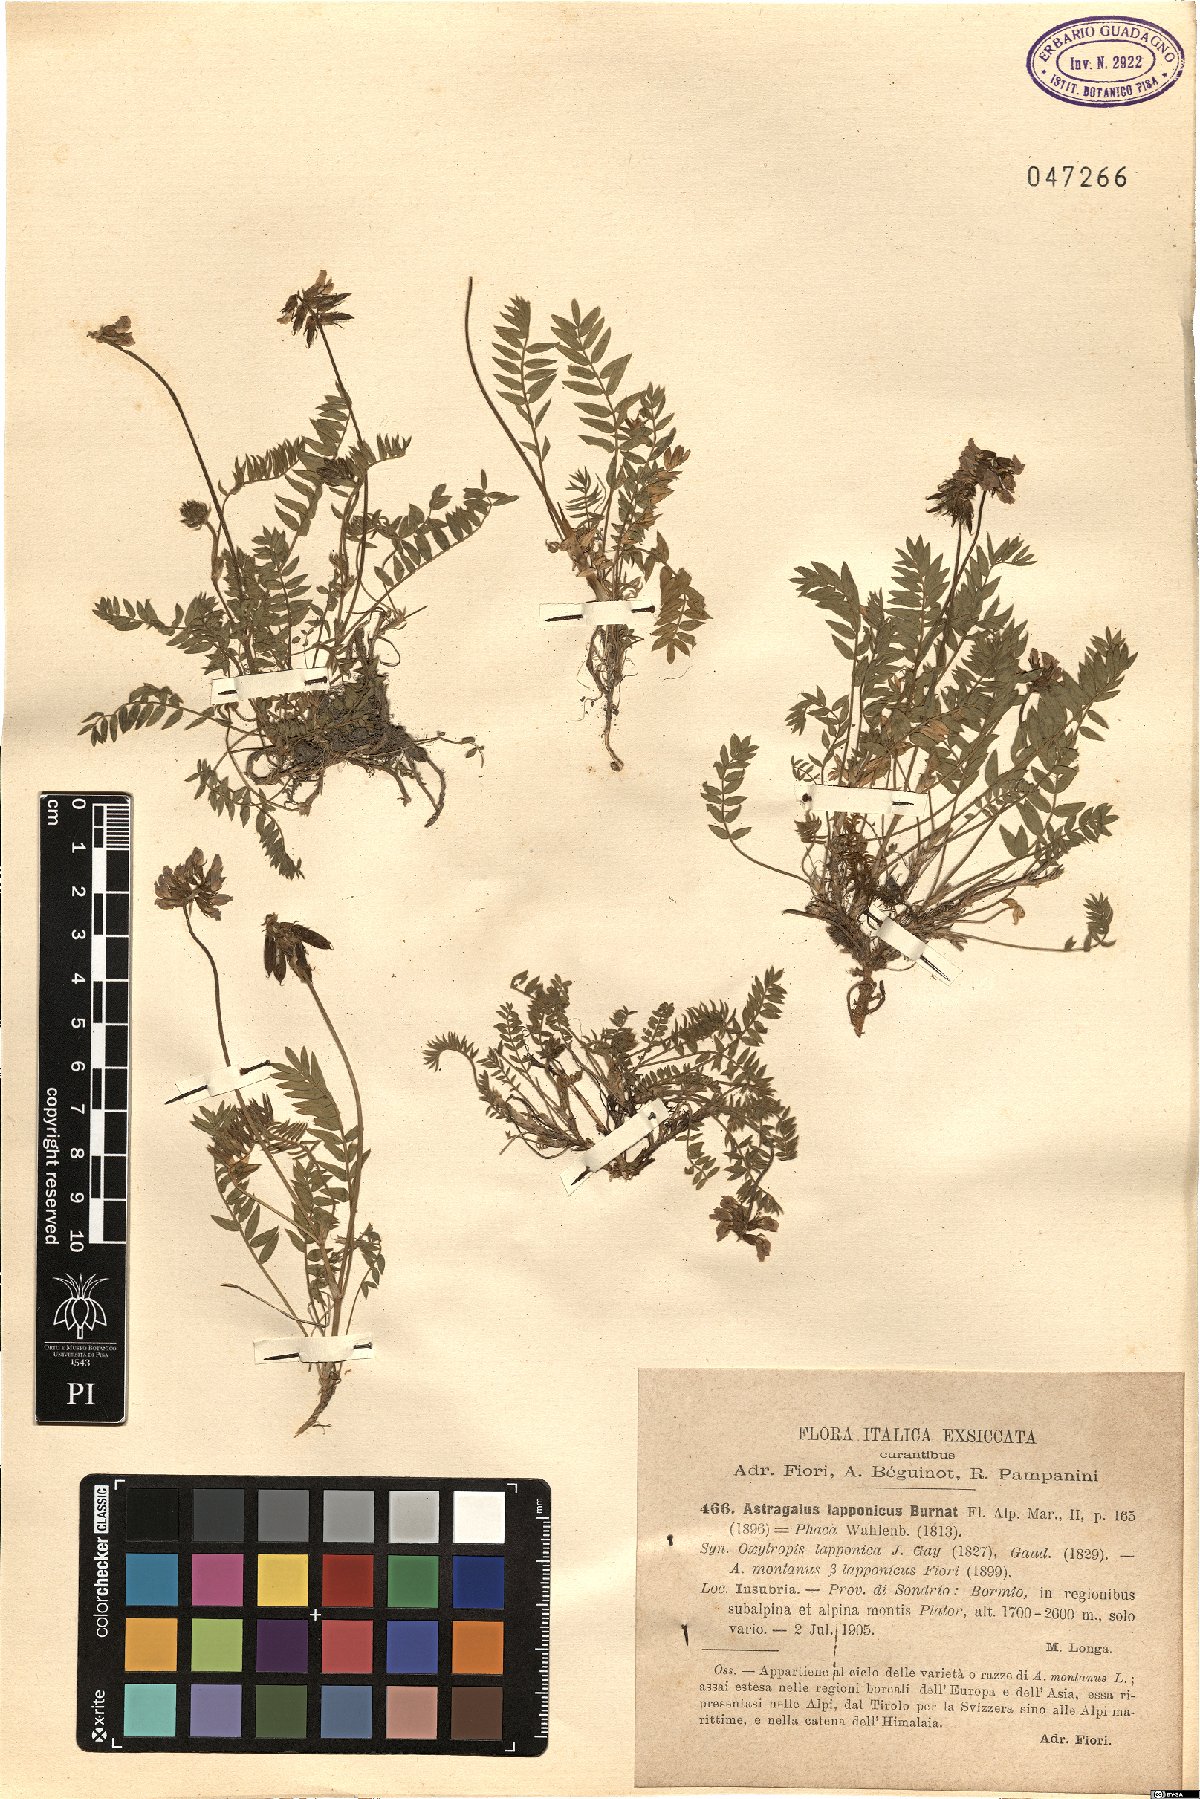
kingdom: Plantae
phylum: Tracheophyta
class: Magnoliopsida
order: Fabales
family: Fabaceae
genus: Oxytropis
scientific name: Oxytropis lapponica
